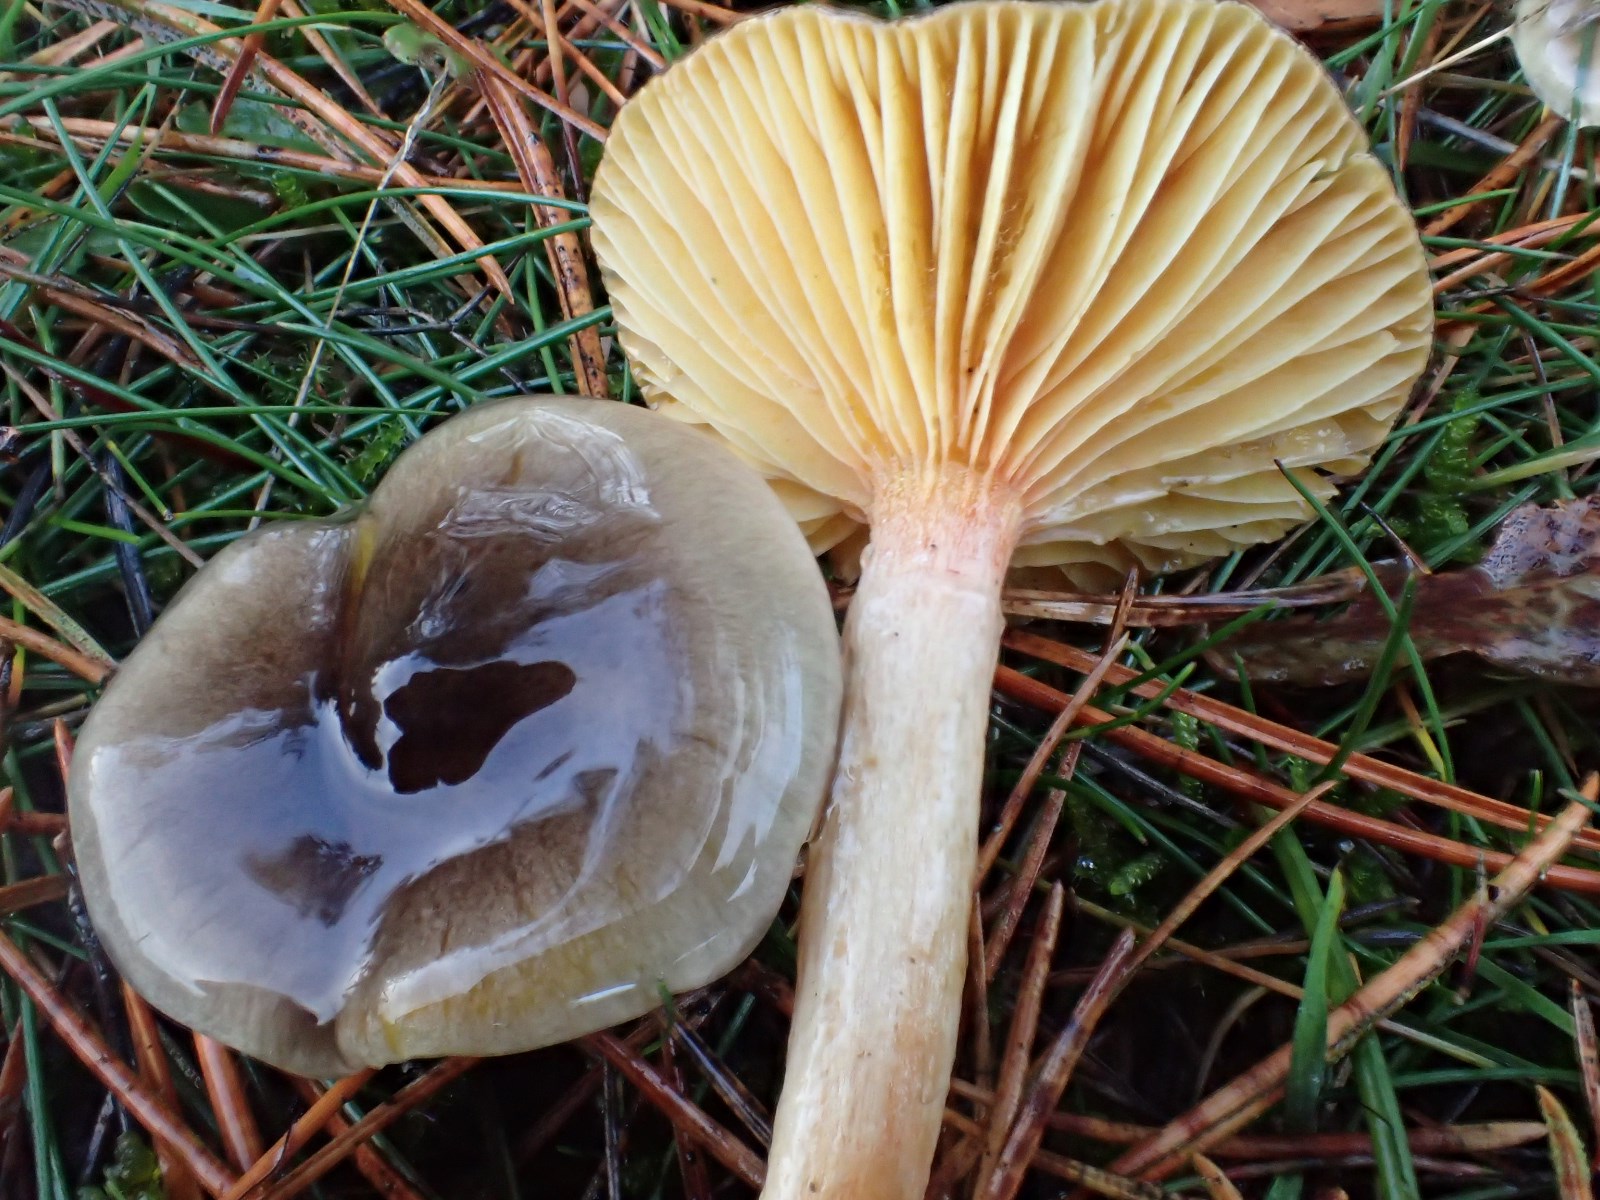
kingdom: Fungi
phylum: Basidiomycota
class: Agaricomycetes
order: Agaricales
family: Hygrophoraceae
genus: Hygrophorus
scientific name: Hygrophorus hypothejus
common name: frost-sneglehat
